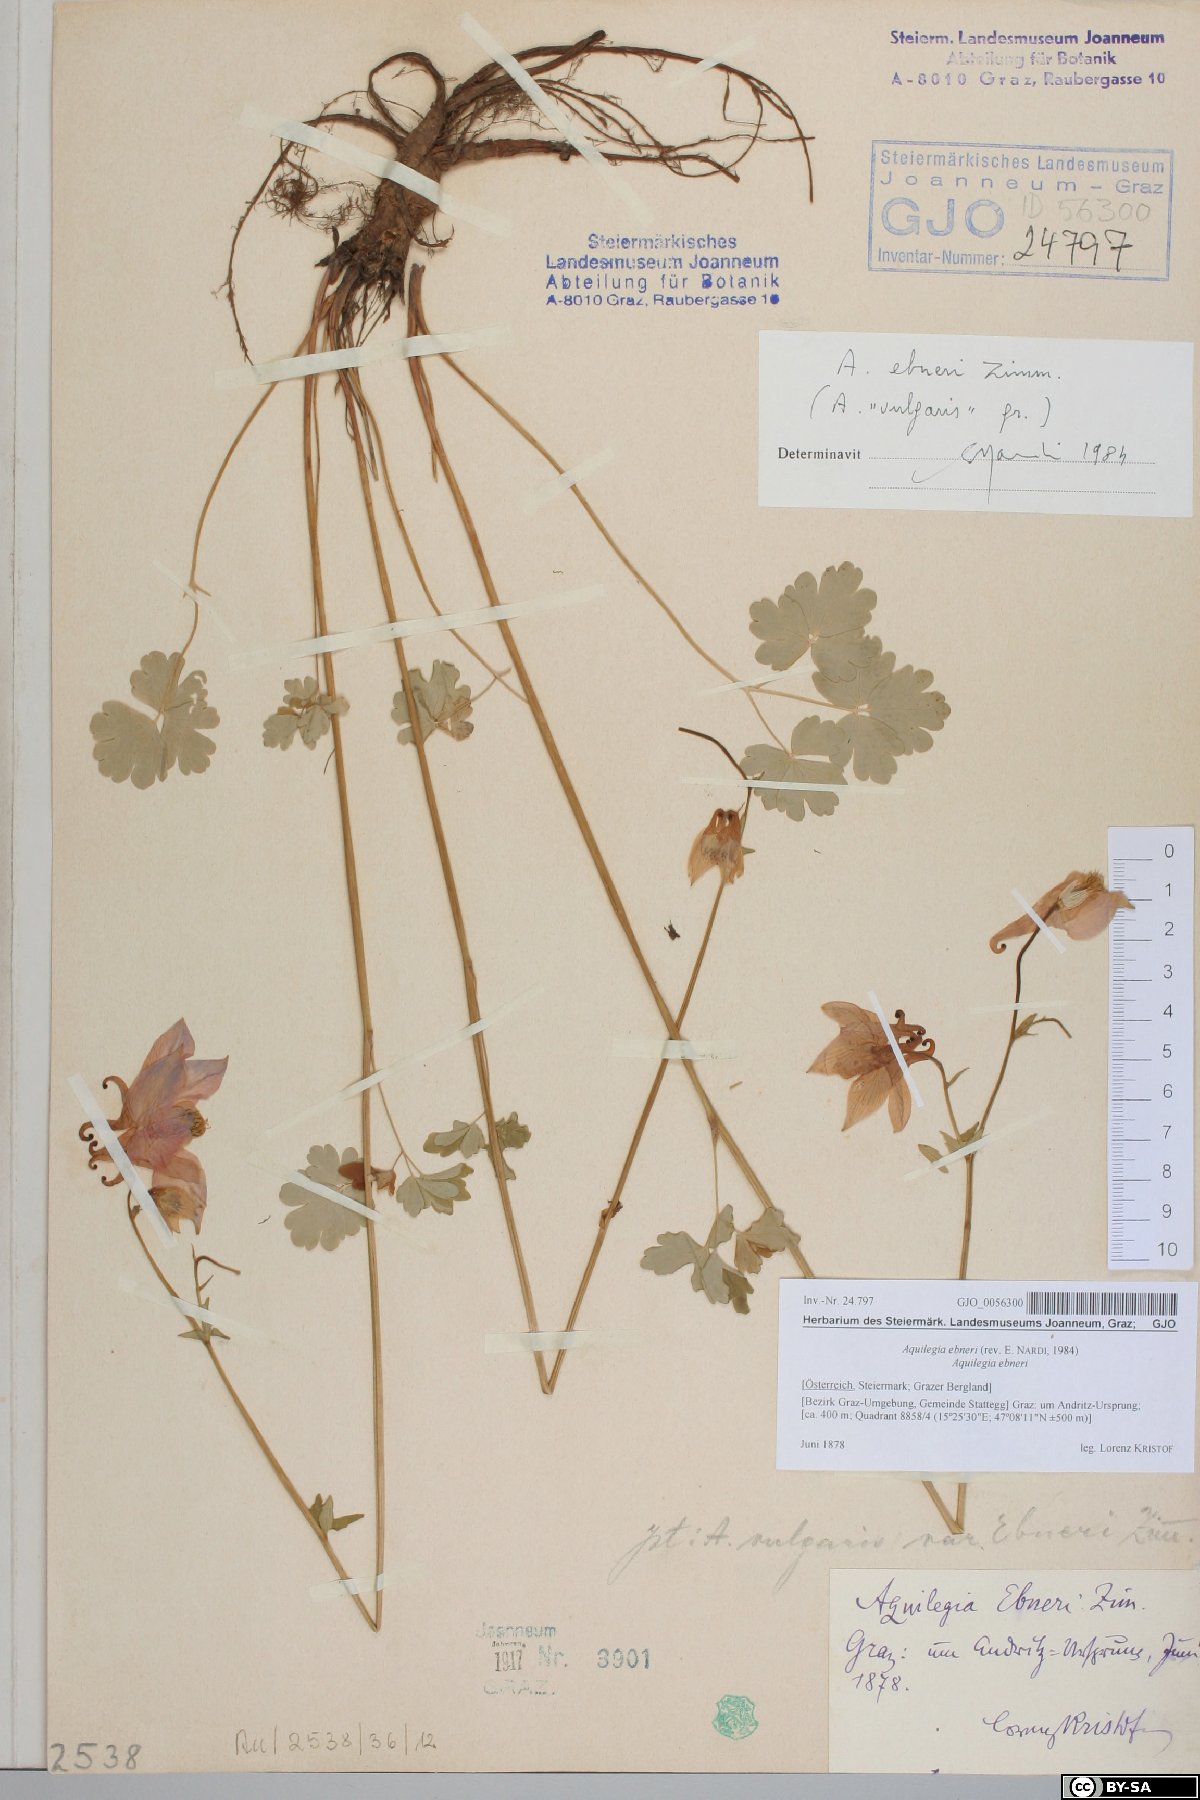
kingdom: Plantae
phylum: Tracheophyta
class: Magnoliopsida
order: Ranunculales
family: Ranunculaceae
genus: Aquilegia
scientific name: Aquilegia vulgaris
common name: Columbine
